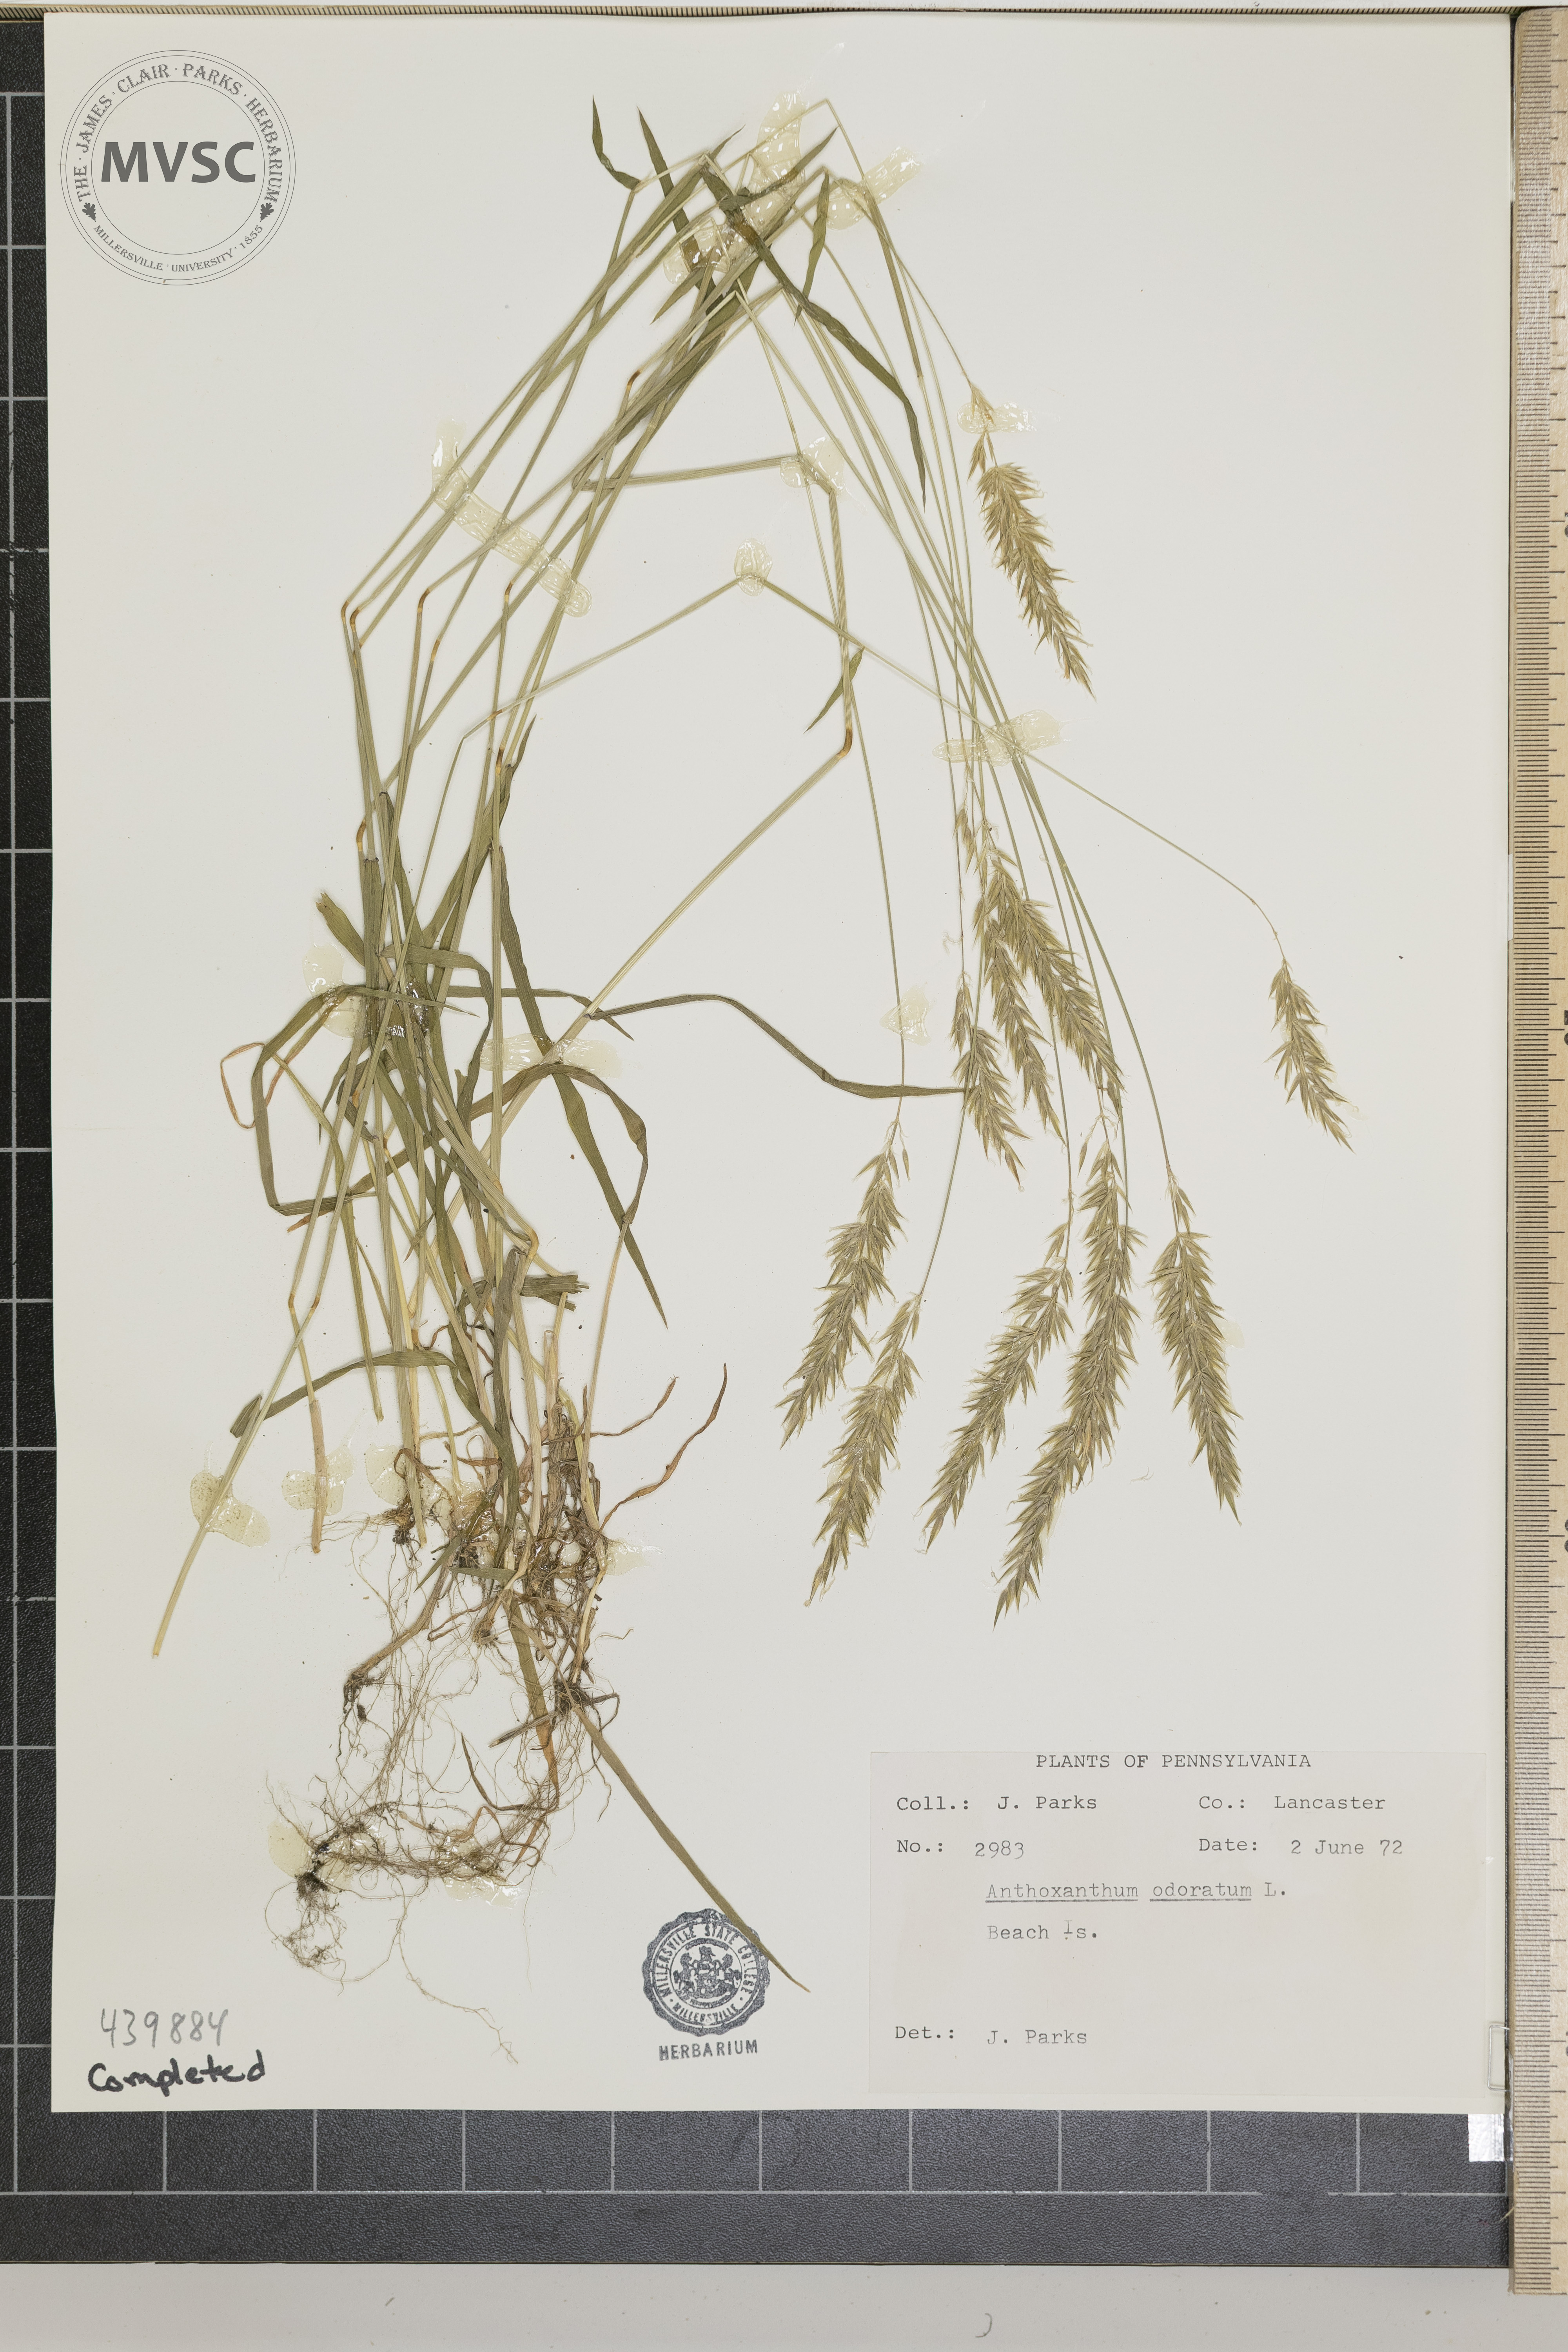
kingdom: Plantae
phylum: Tracheophyta
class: Liliopsida
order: Poales
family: Poaceae
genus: Anthoxanthum
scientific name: Anthoxanthum odoratum
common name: Sweet vernalgrass
